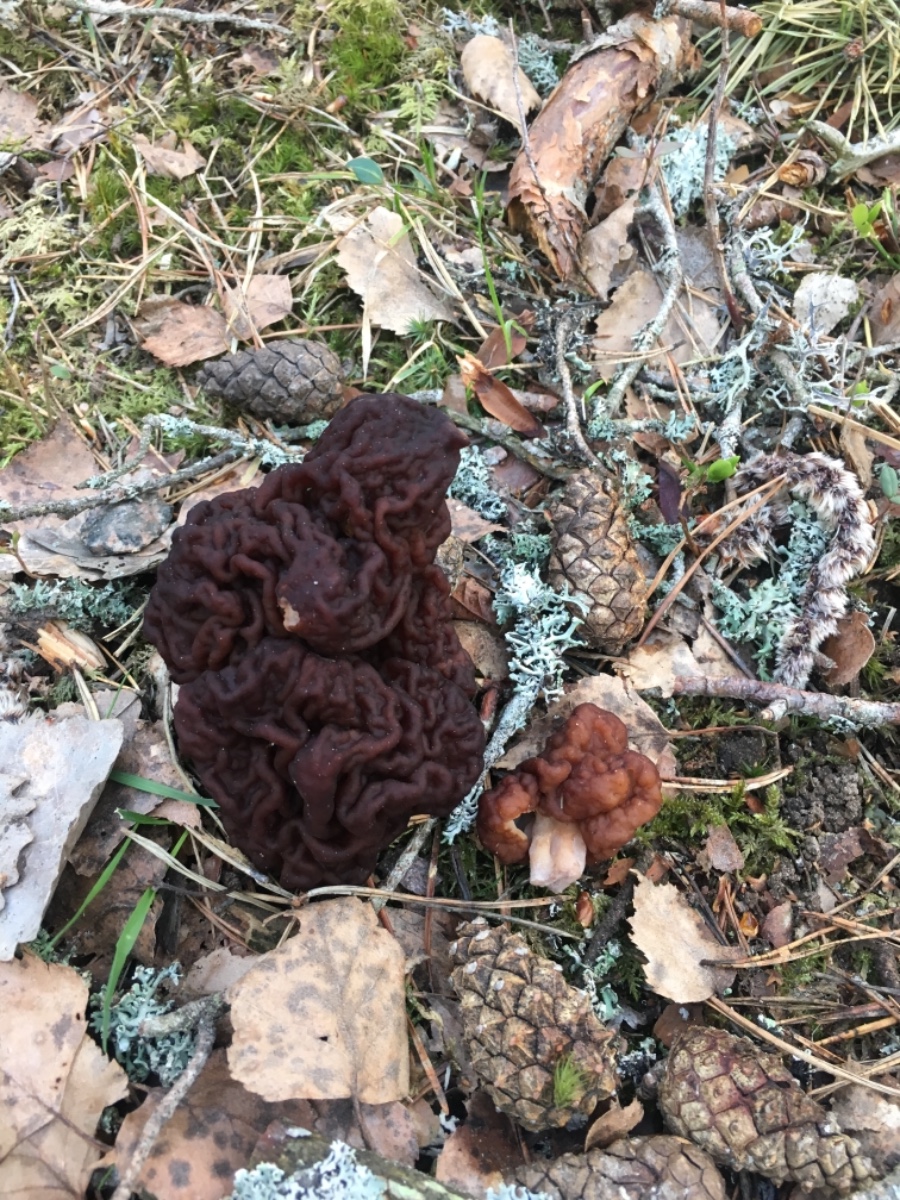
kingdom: Fungi
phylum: Ascomycota
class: Pezizomycetes
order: Pezizales
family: Discinaceae
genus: Gyromitra
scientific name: Gyromitra esculenta
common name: ægte stenmorkel
